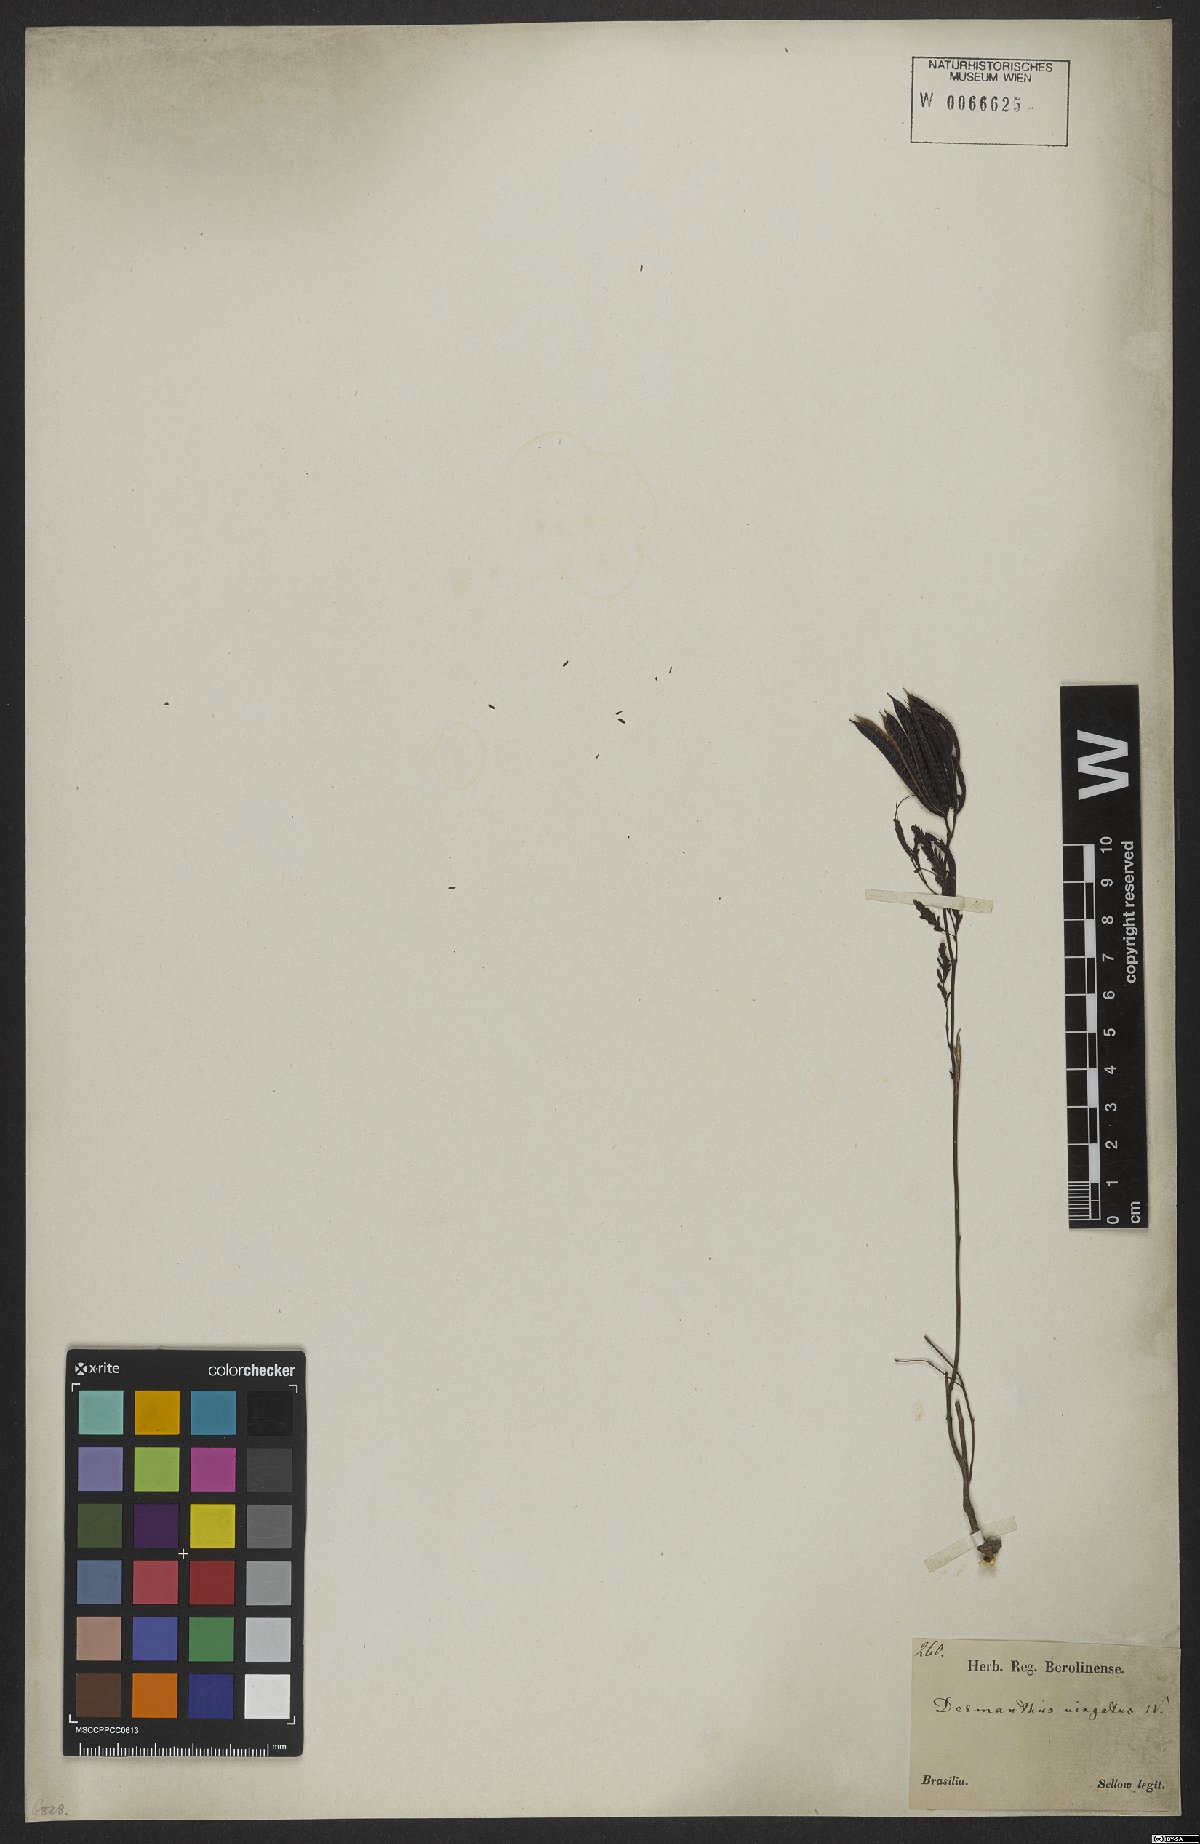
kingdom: Plantae
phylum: Tracheophyta
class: Magnoliopsida
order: Fabales
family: Fabaceae
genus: Desmanthus
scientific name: Desmanthus virgatus
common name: Wild tantan
